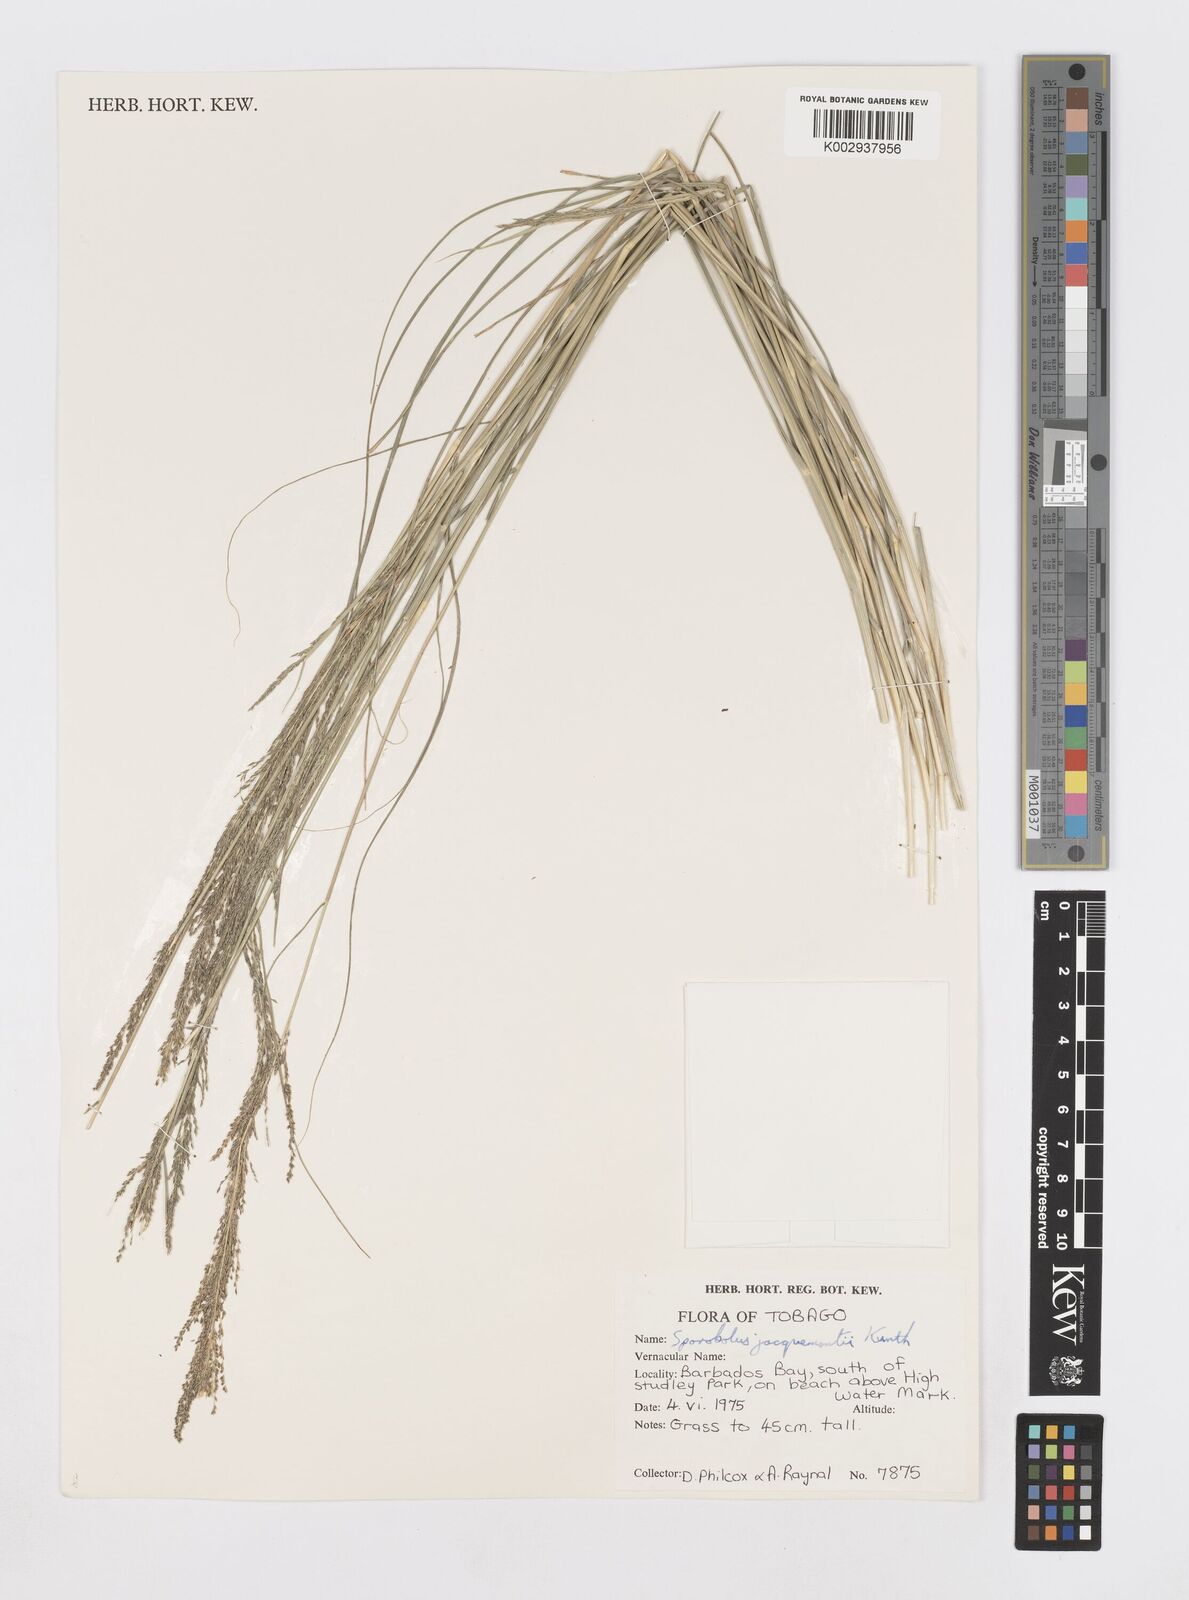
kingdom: Plantae
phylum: Tracheophyta
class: Liliopsida
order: Poales
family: Poaceae
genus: Sporobolus
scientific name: Sporobolus pyramidalis
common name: West indian dropseed
